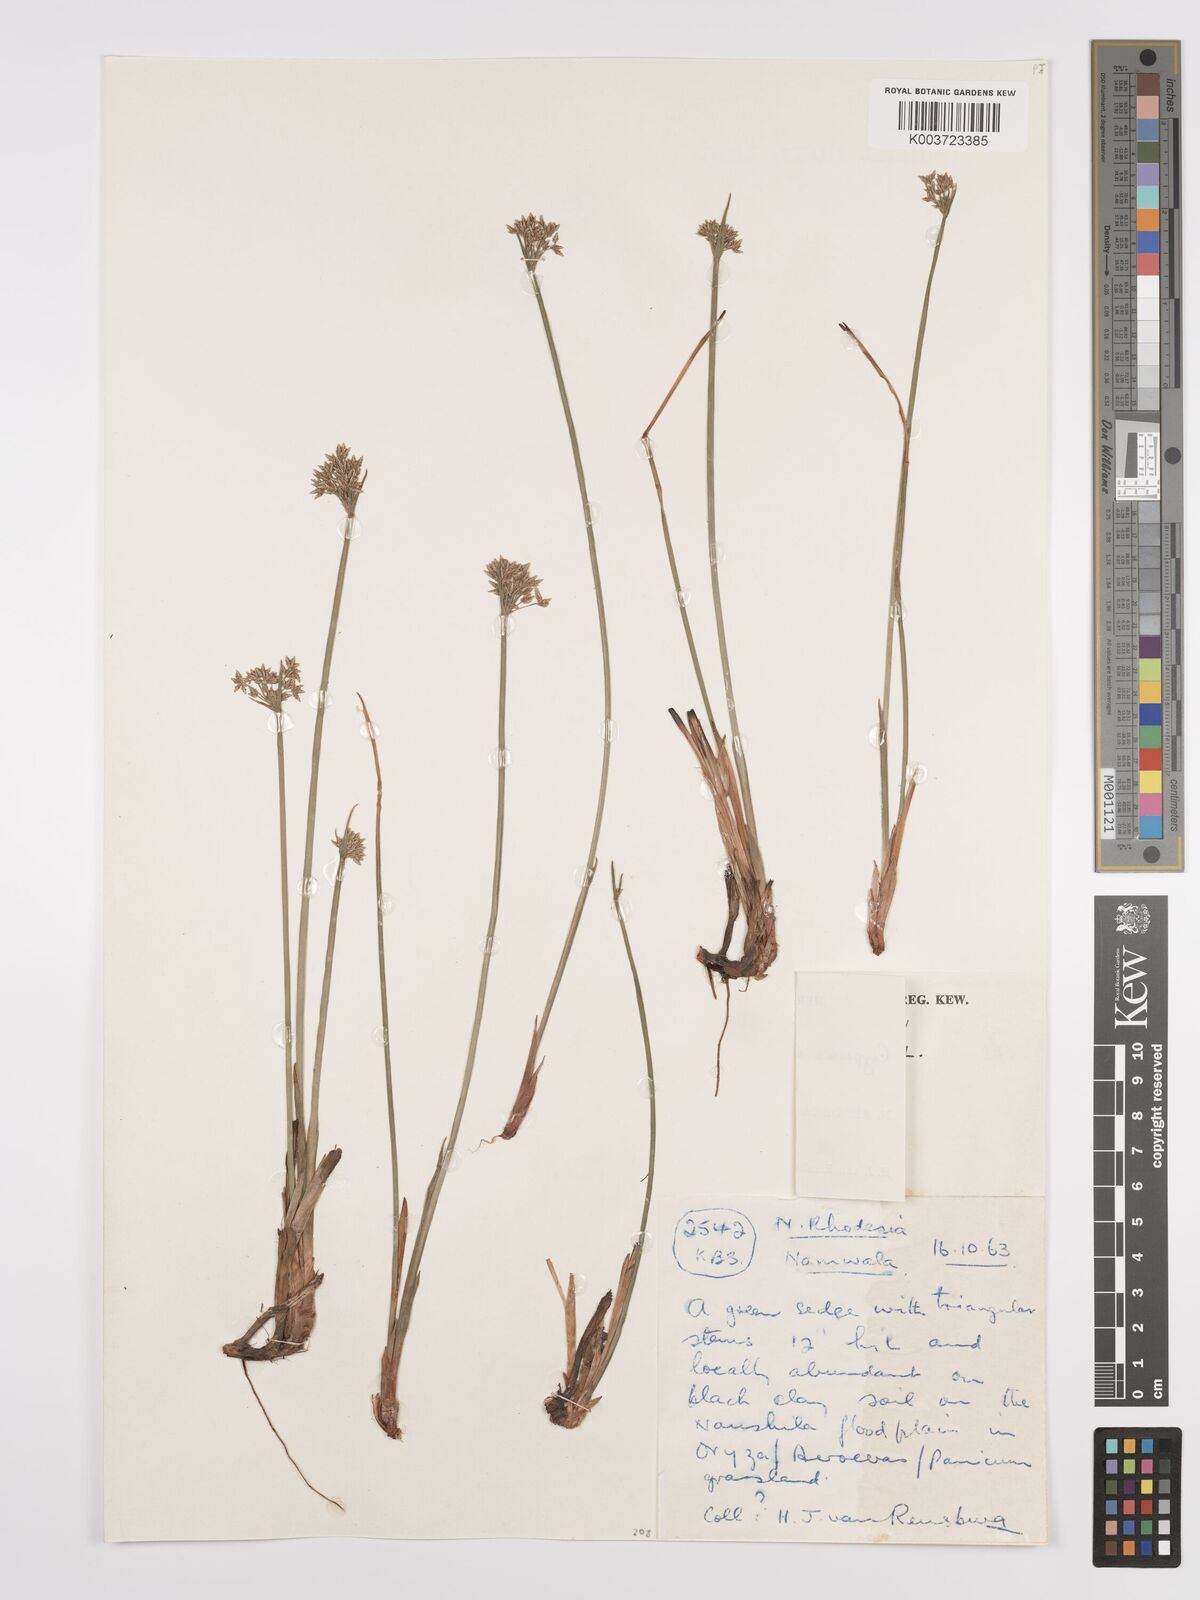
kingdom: Plantae
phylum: Tracheophyta
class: Liliopsida
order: Poales
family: Cyperaceae
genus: Cyperus
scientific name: Cyperus denudatus
